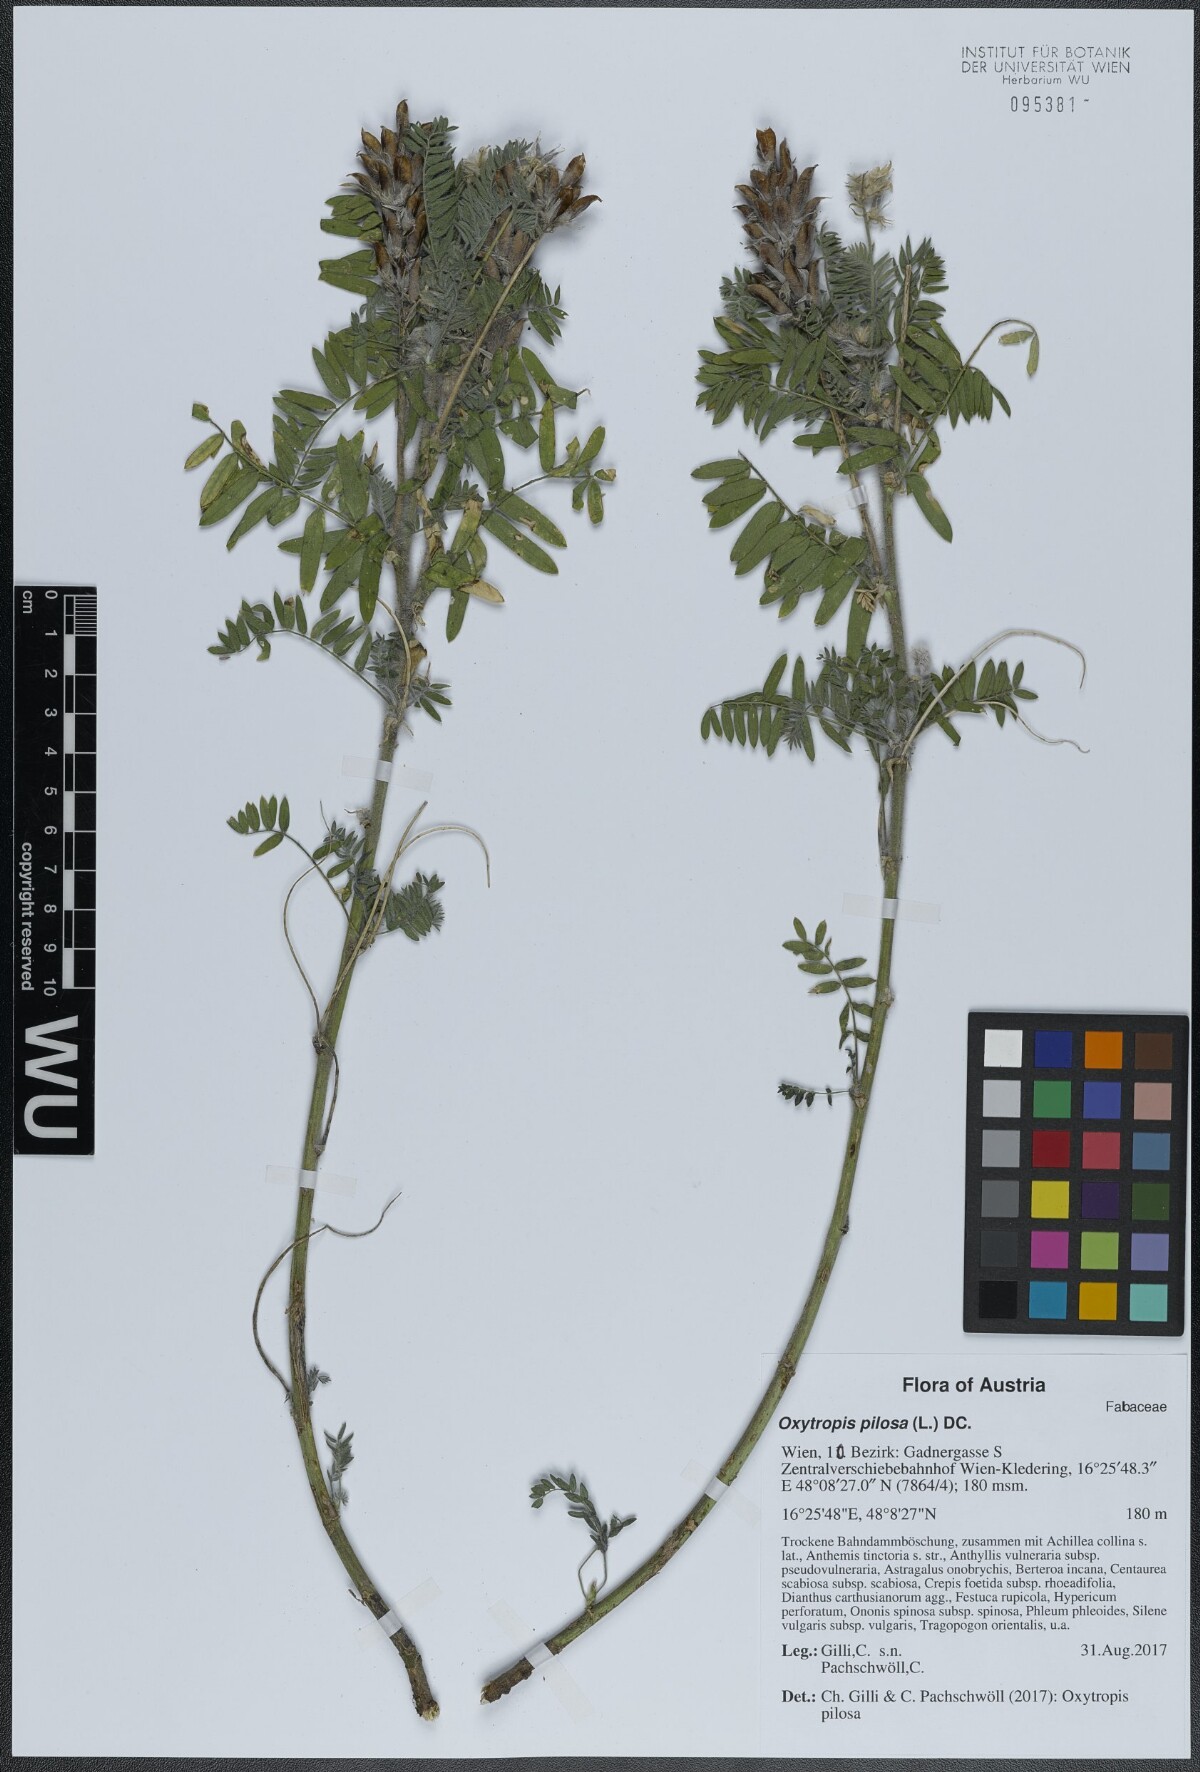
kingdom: Plantae
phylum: Tracheophyta
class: Magnoliopsida
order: Fabales
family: Fabaceae
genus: Oxytropis
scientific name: Oxytropis pilosa
